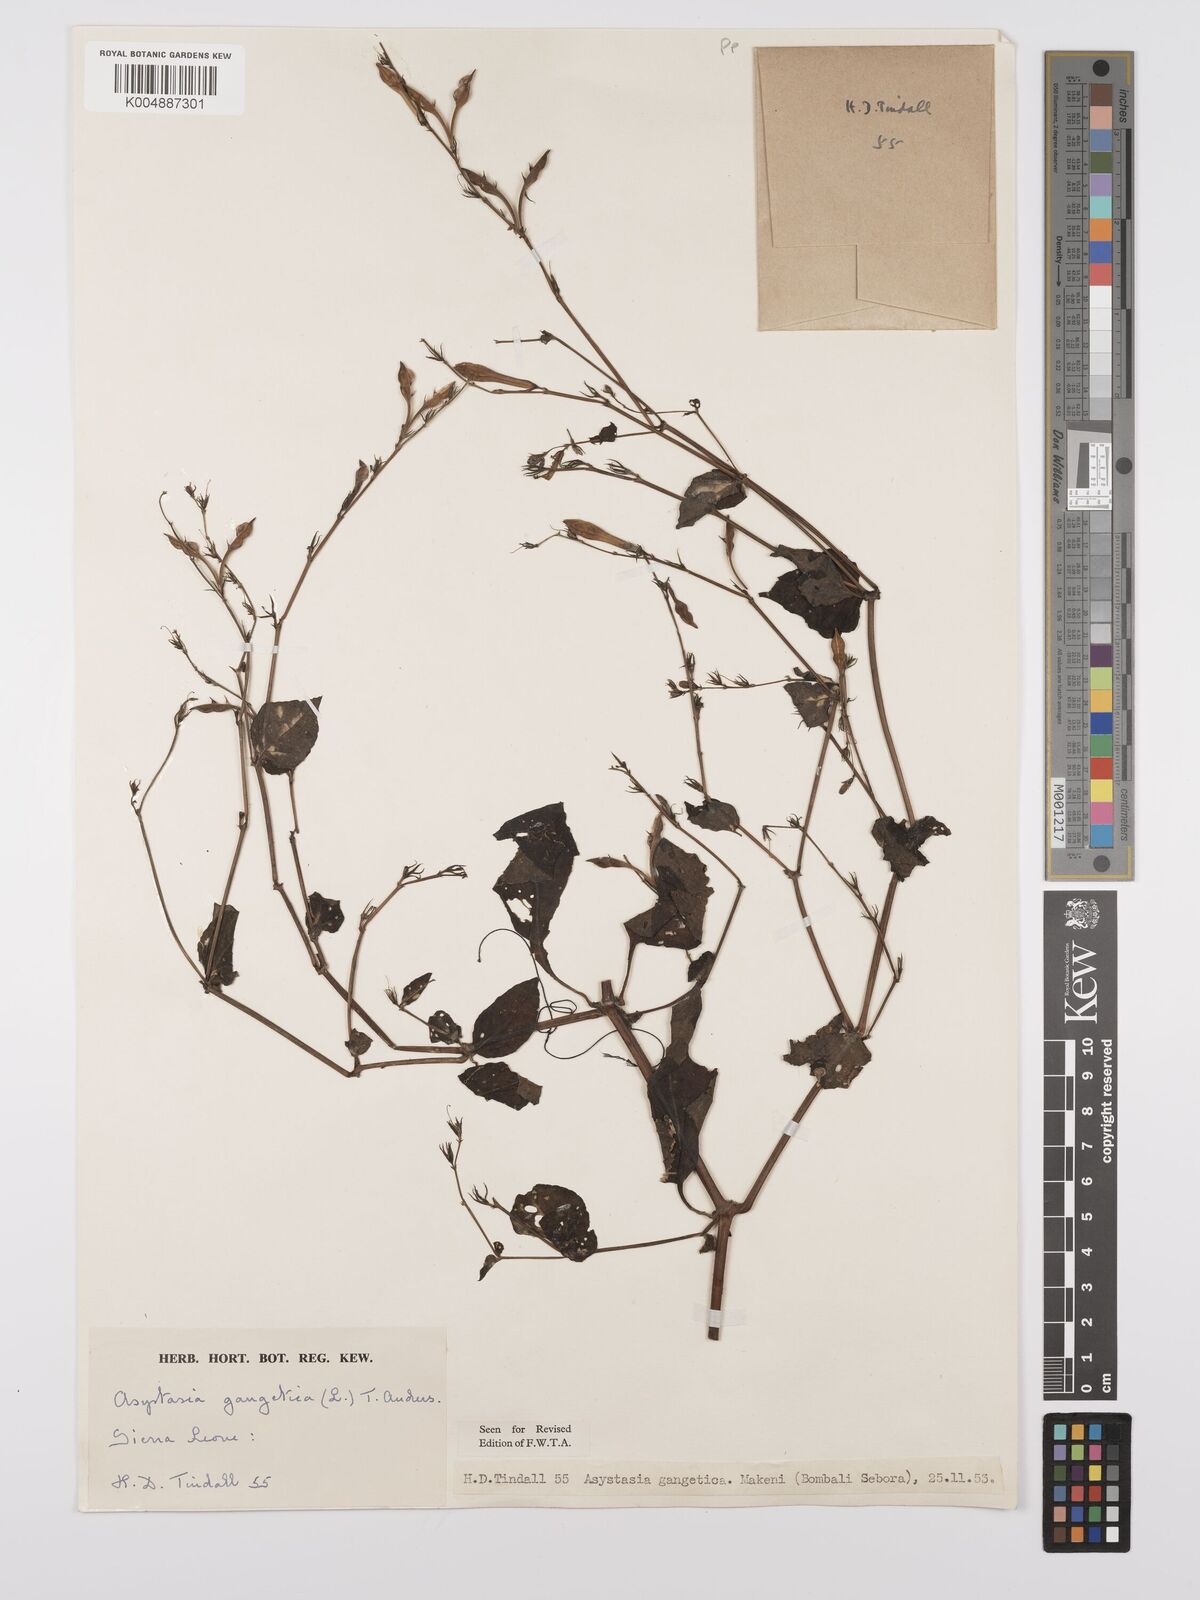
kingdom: Plantae
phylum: Tracheophyta
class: Magnoliopsida
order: Lamiales
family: Acanthaceae
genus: Asystasia
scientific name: Asystasia gangetica
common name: Chinese violet
